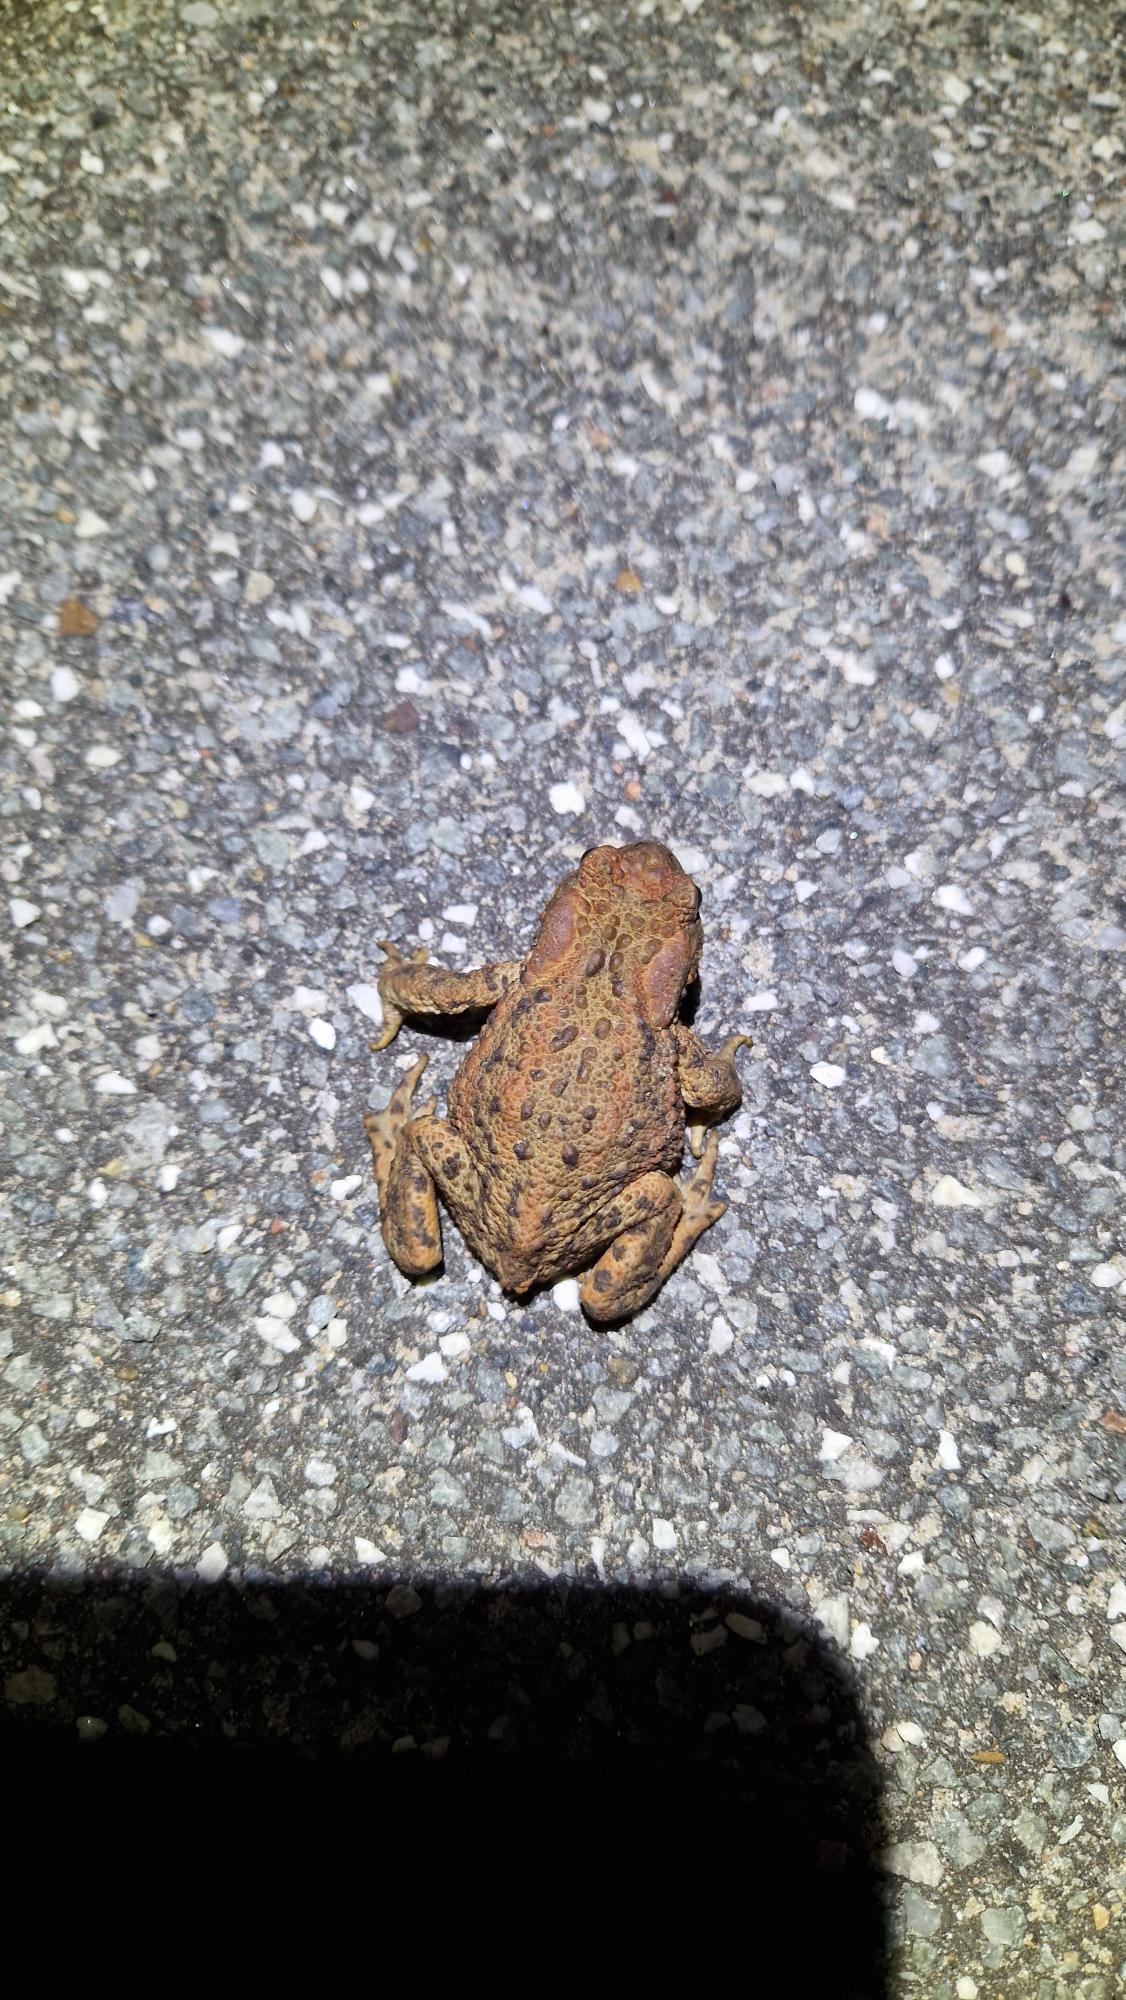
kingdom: Animalia
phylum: Chordata
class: Amphibia
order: Anura
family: Bufonidae
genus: Bufo
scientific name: Bufo bufo
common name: Skrubtudse
